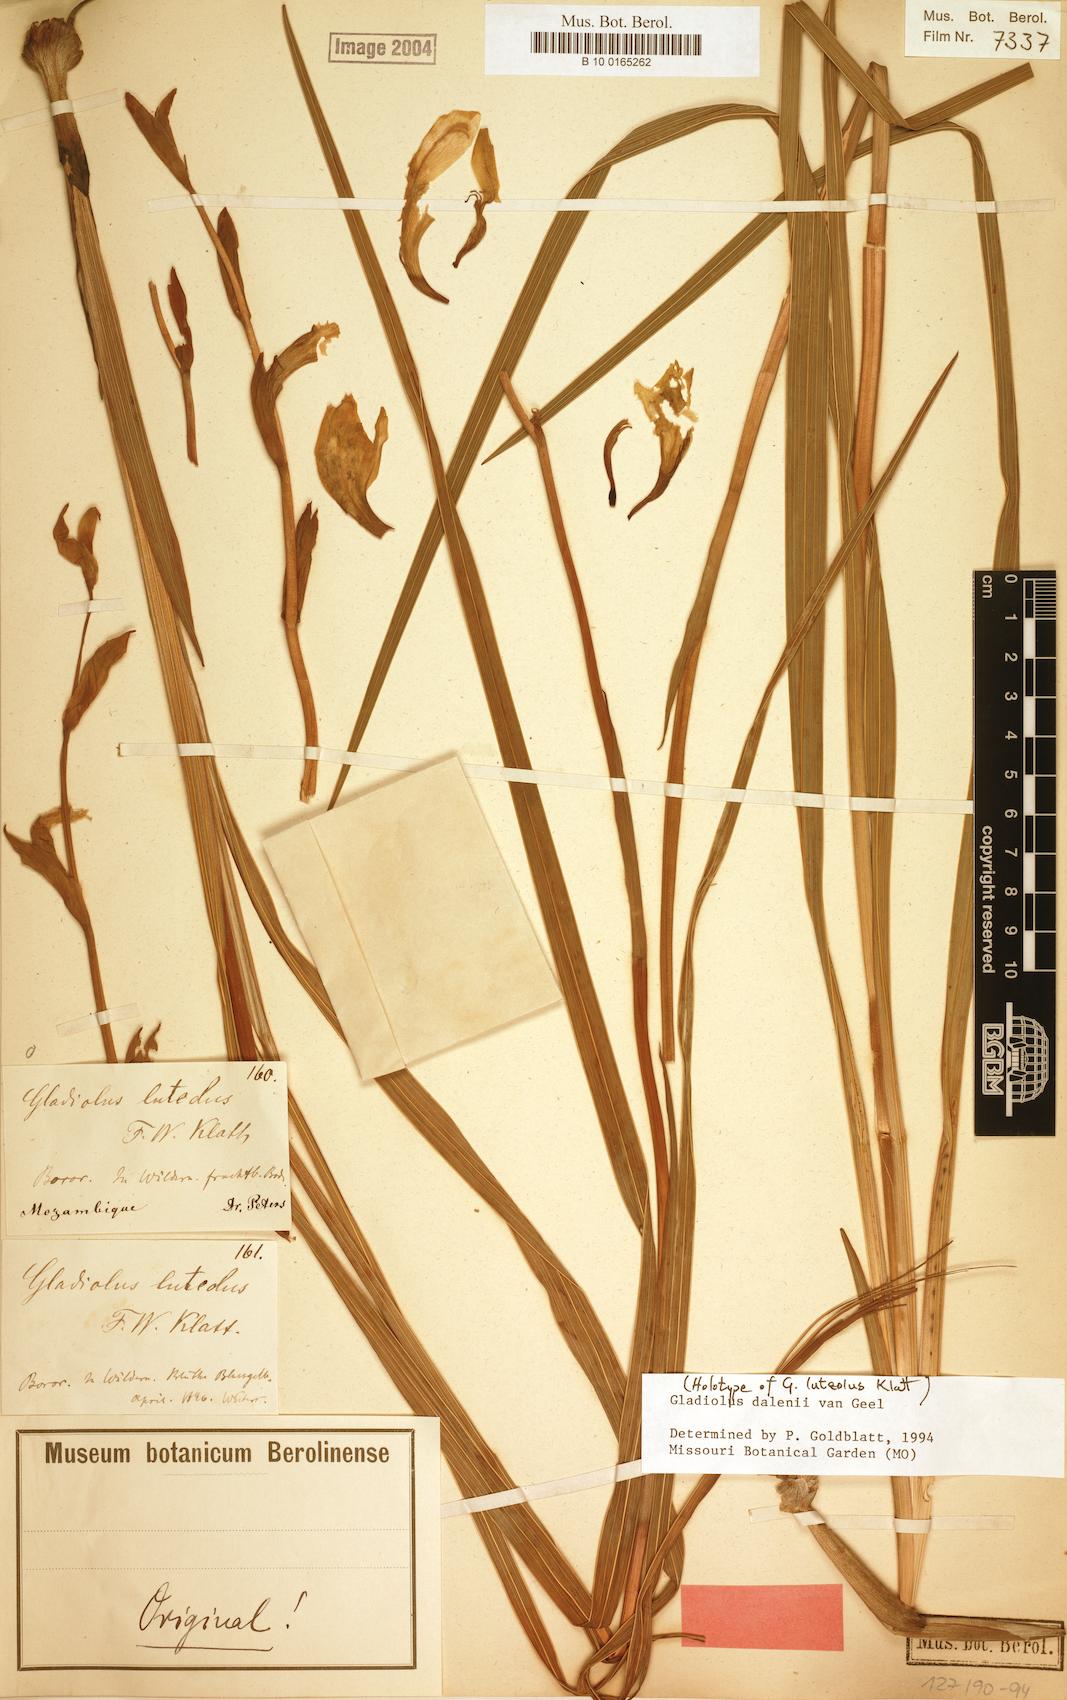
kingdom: Plantae
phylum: Tracheophyta
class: Liliopsida
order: Asparagales
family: Iridaceae
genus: Gladiolus
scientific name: Gladiolus dalenii
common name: Cornflag
